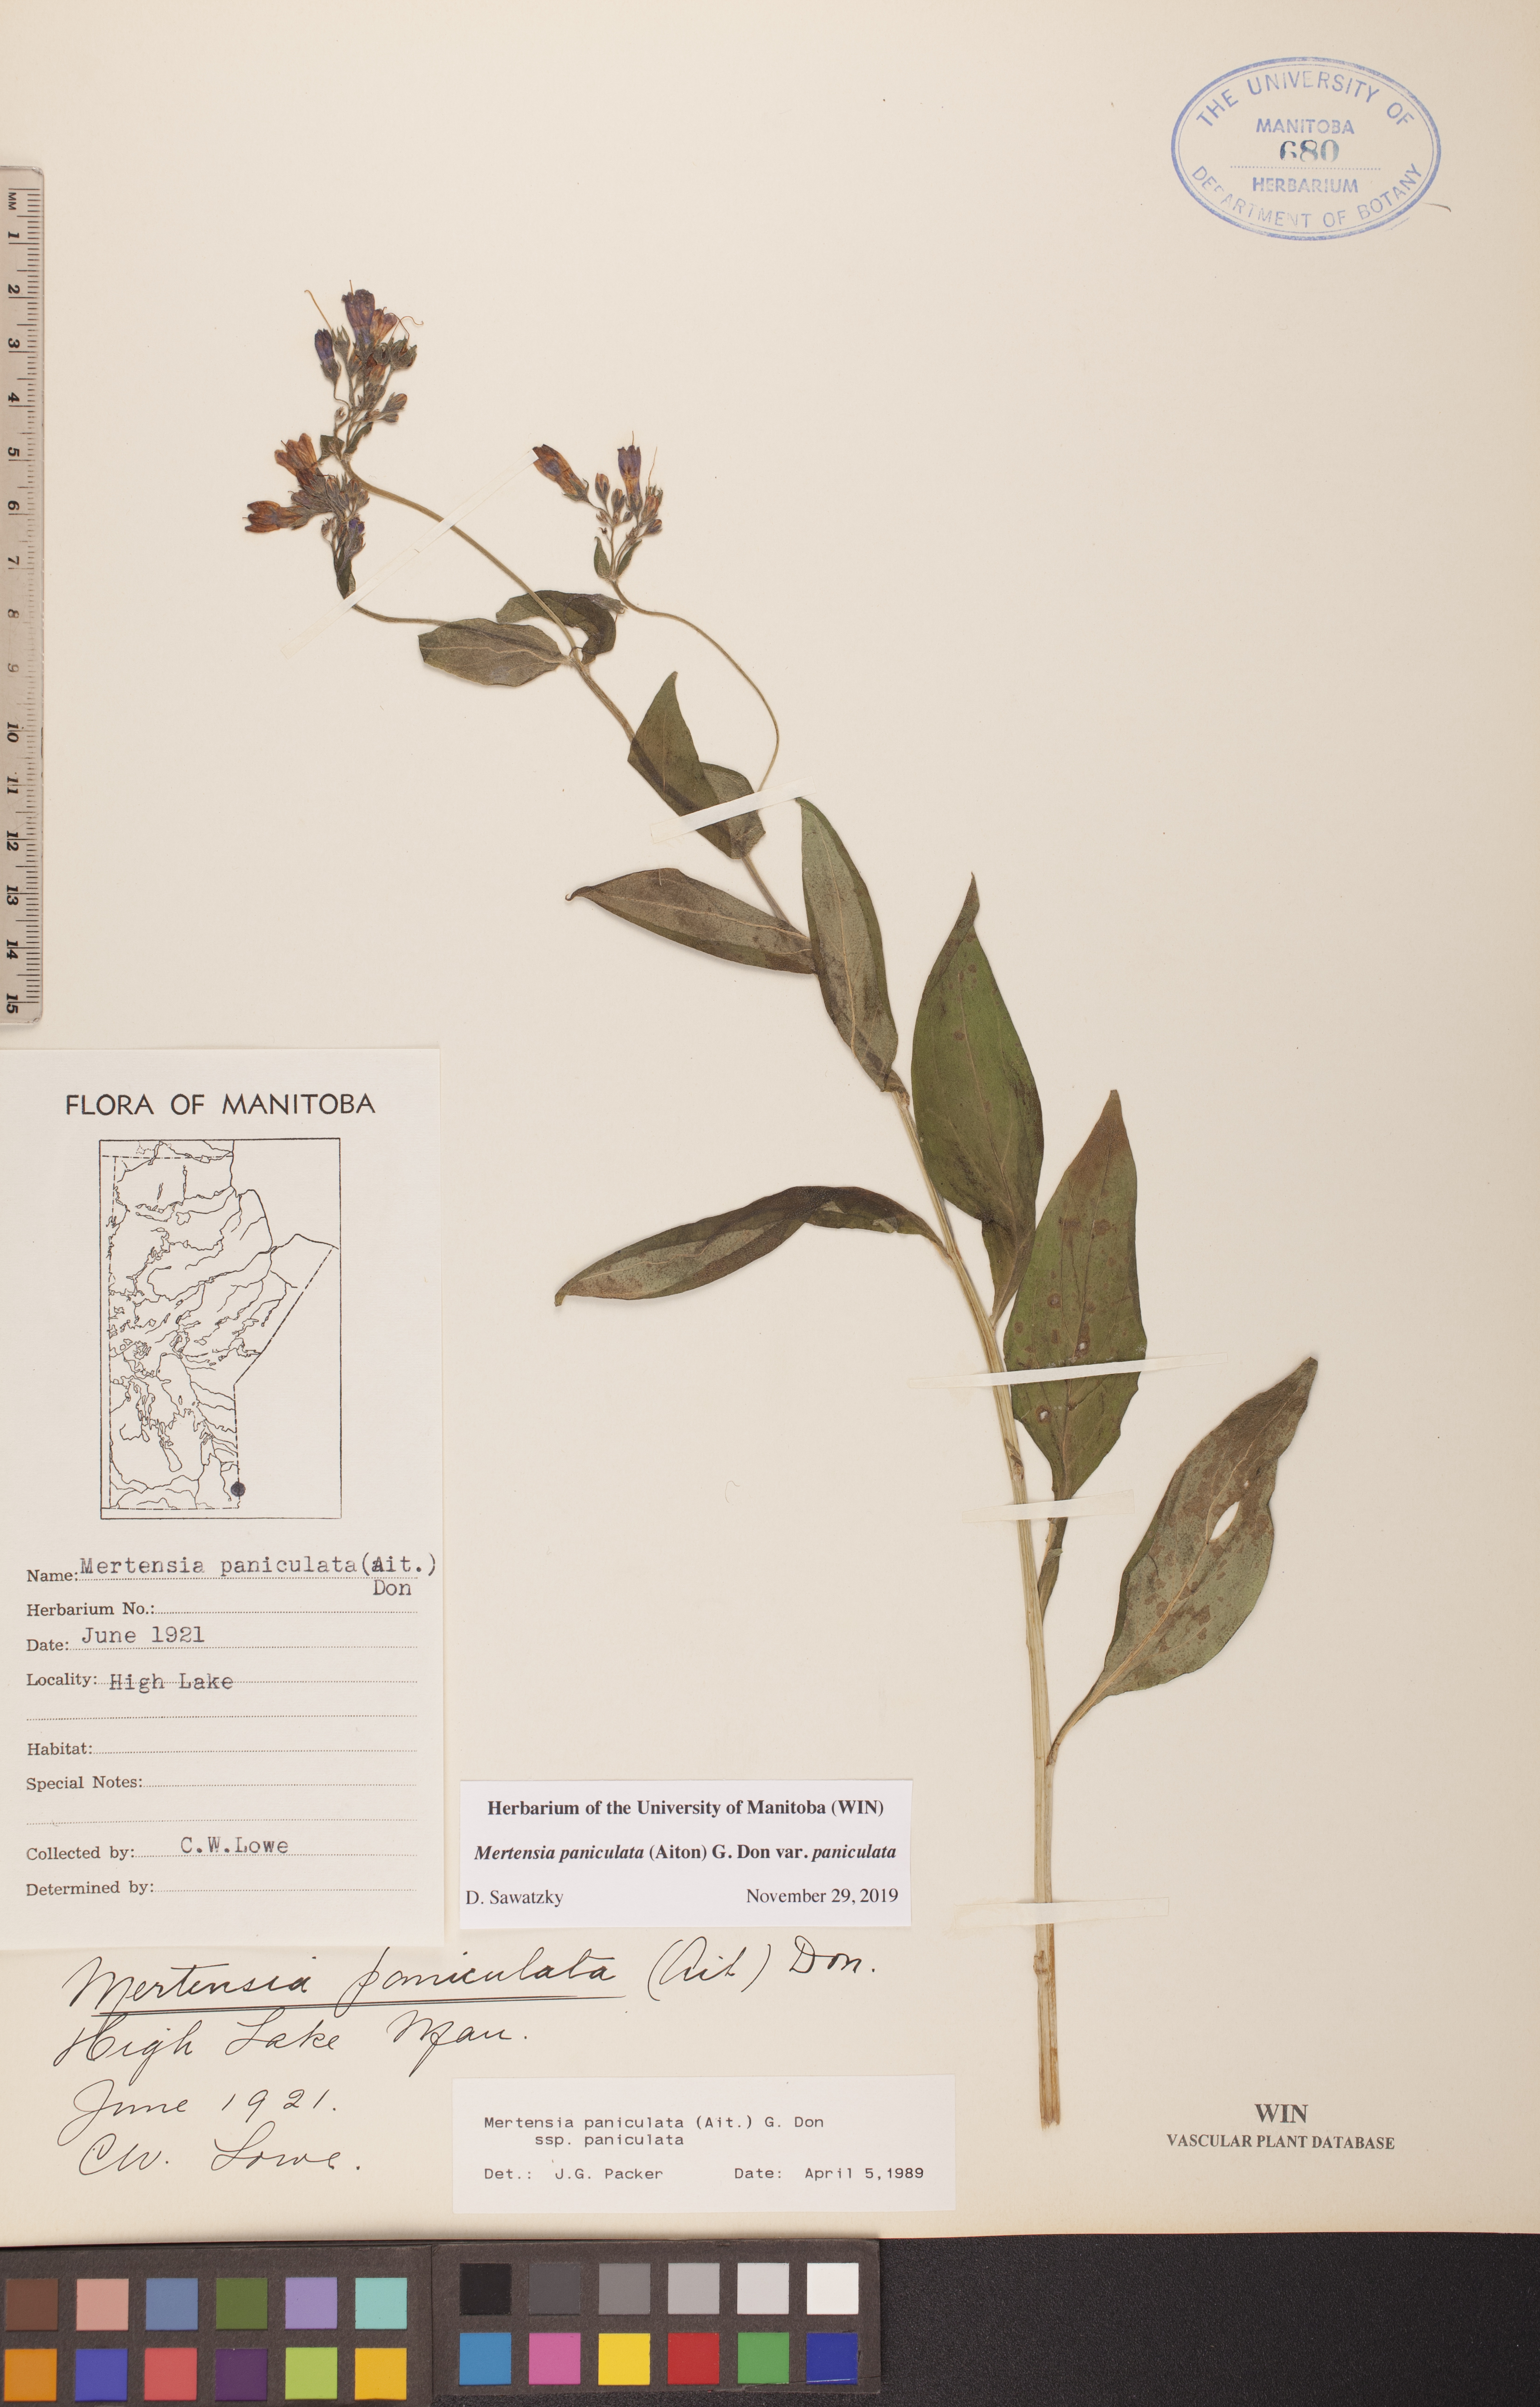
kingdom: Plantae
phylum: Tracheophyta
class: Magnoliopsida
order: Boraginales
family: Boraginaceae
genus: Mertensia
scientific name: Mertensia paniculata
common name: Panicled bluebells
